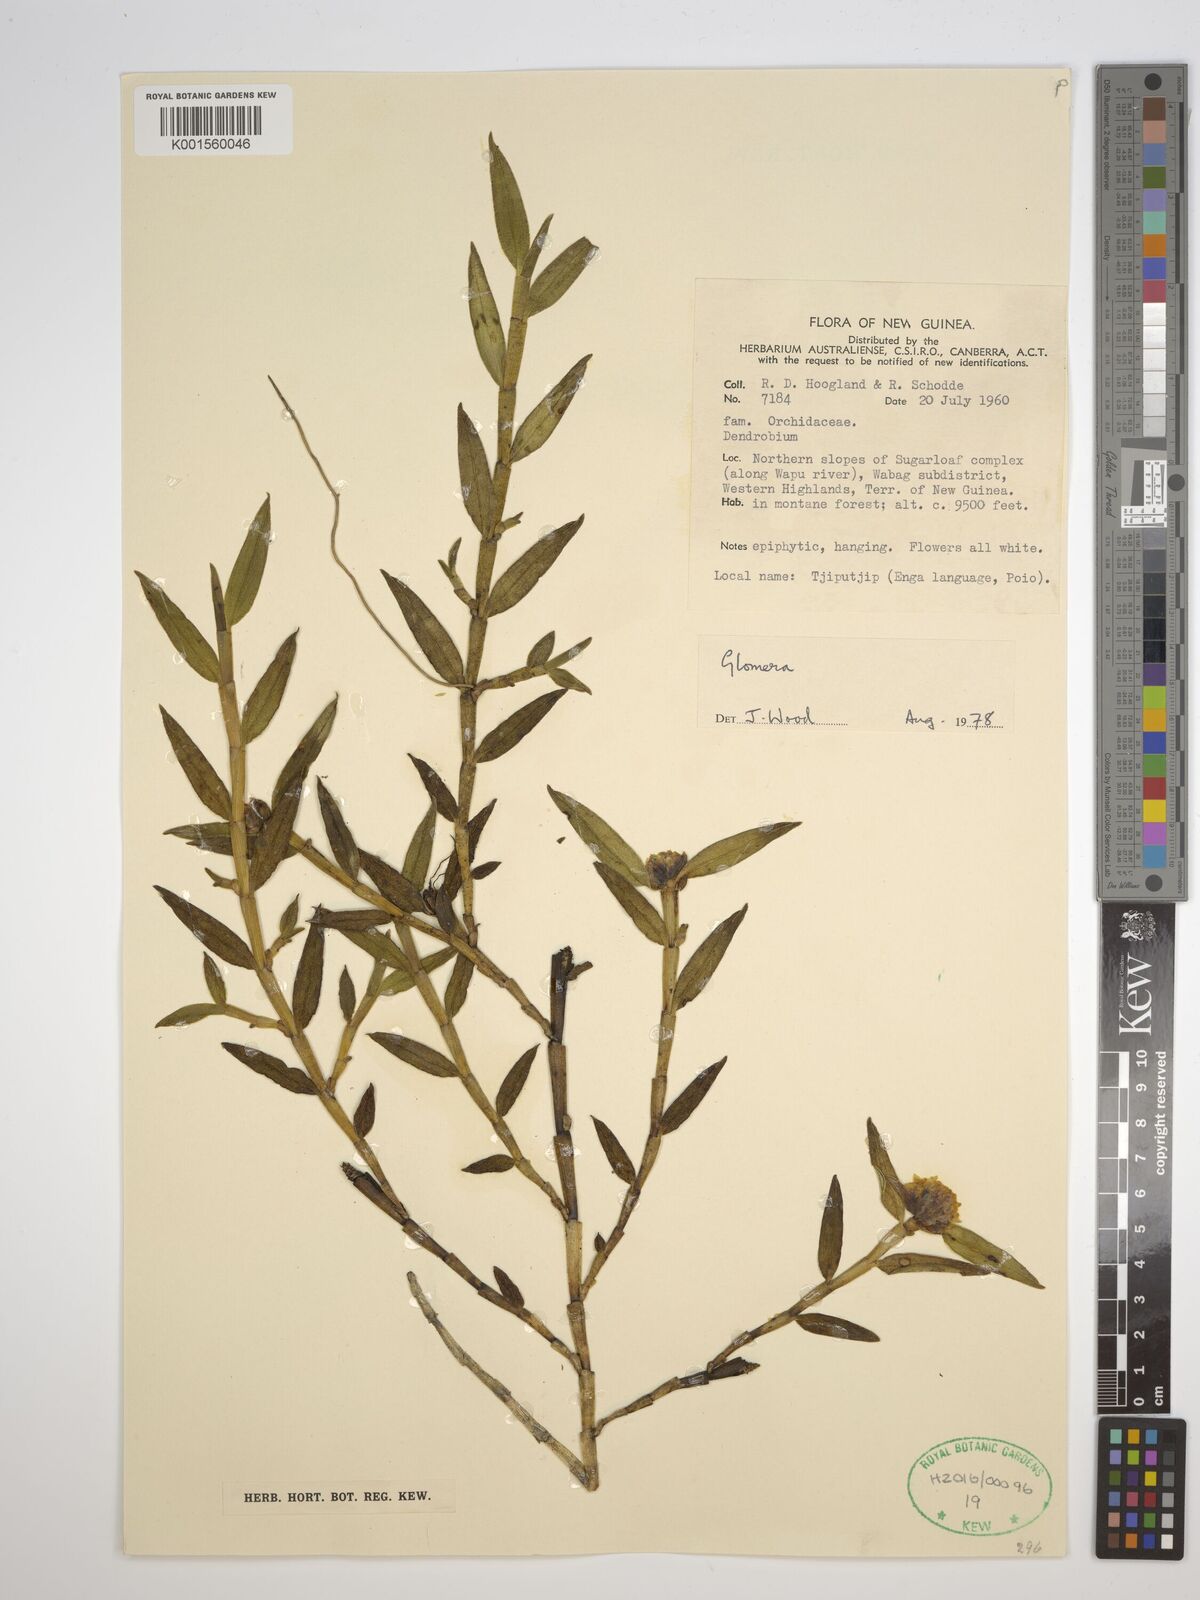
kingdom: Plantae
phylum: Tracheophyta
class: Liliopsida
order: Asparagales
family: Orchidaceae
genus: Glomera
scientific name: Glomera
